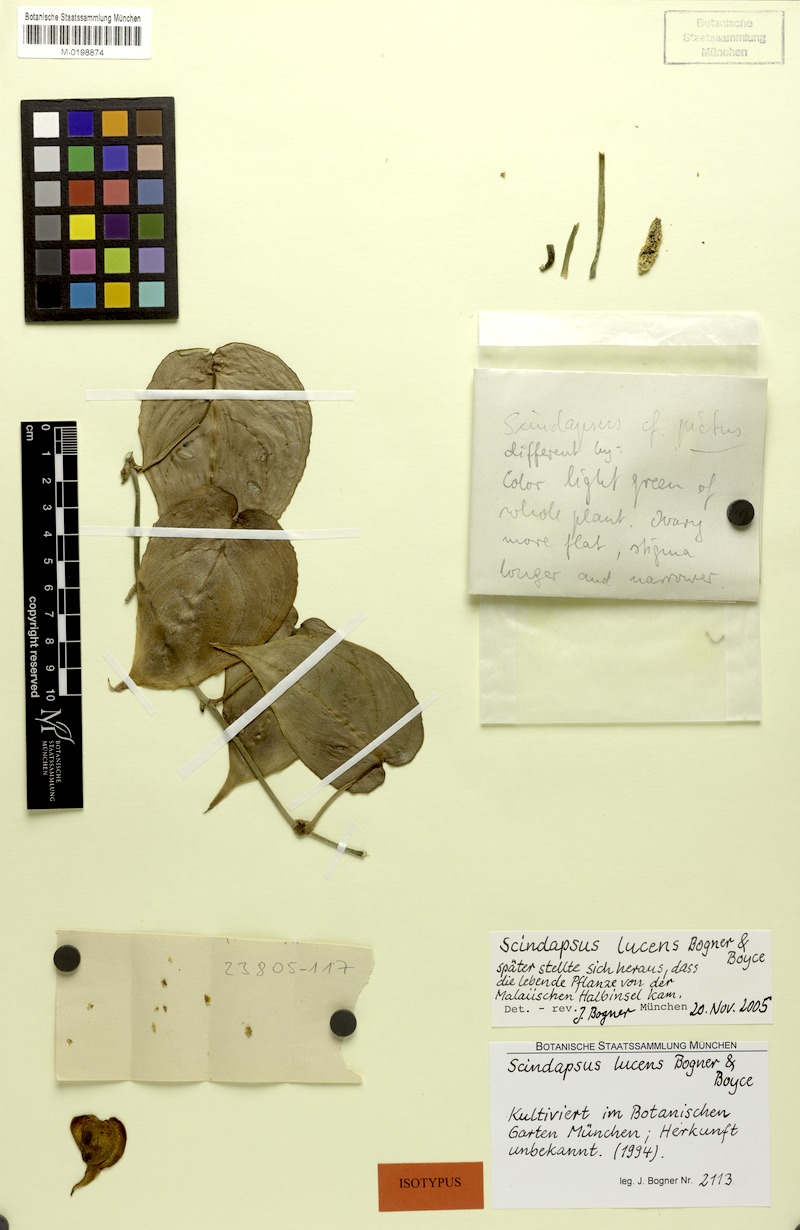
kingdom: Plantae
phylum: Tracheophyta
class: Liliopsida
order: Alismatales
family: Araceae
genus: Scindapsus
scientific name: Scindapsus lucens
